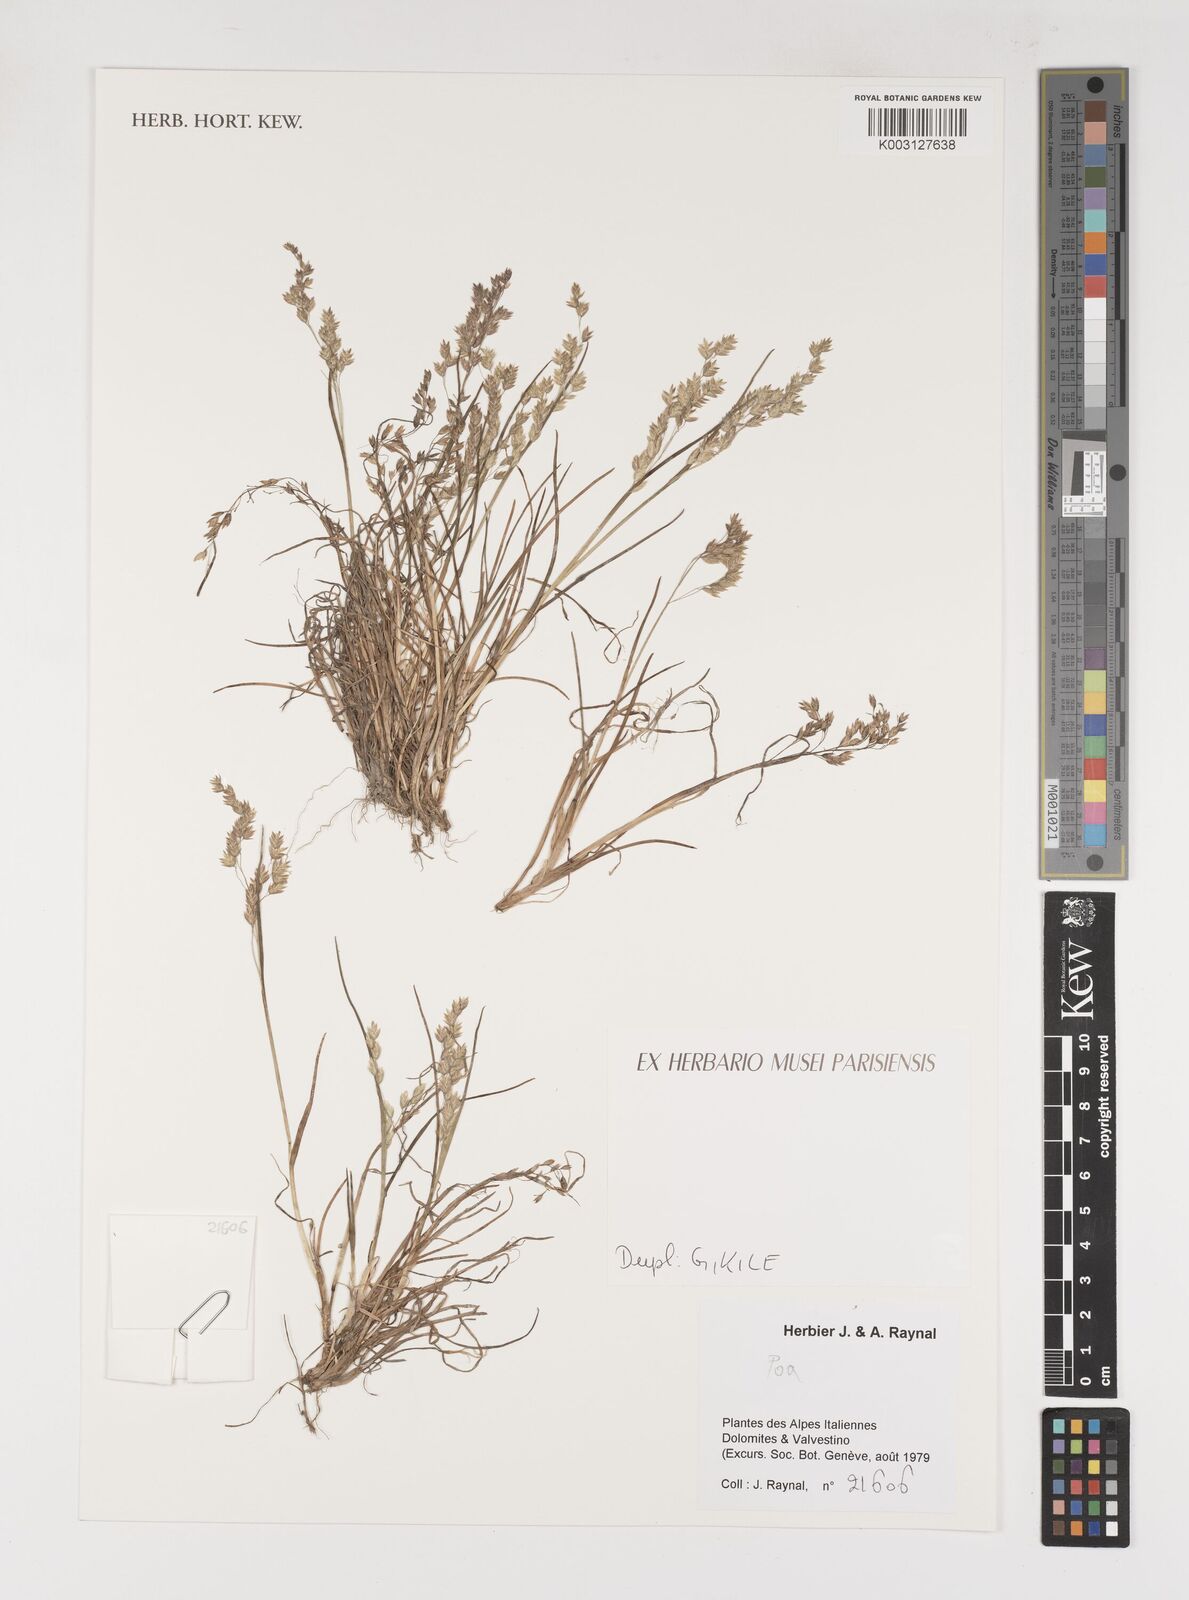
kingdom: Plantae
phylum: Tracheophyta
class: Liliopsida
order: Poales
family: Poaceae
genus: Poa
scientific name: Poa
